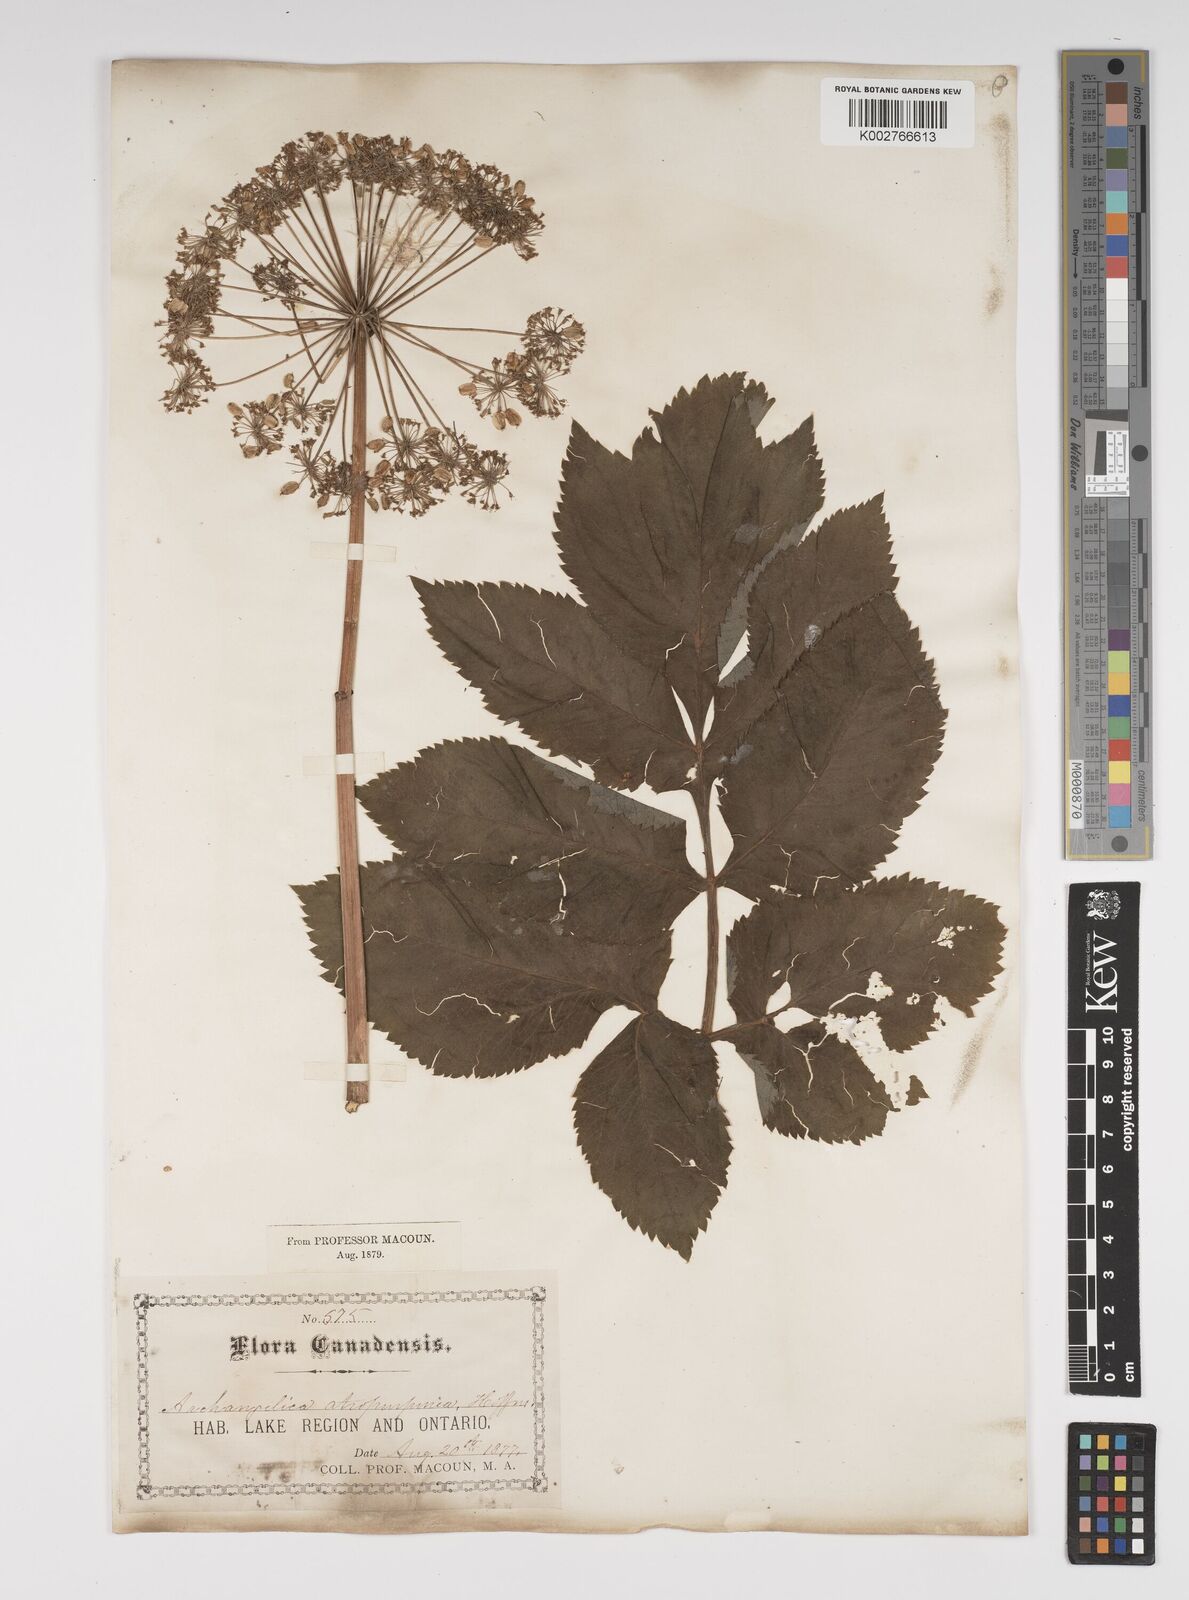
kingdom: Plantae
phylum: Tracheophyta
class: Magnoliopsida
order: Apiales
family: Apiaceae
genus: Angelica
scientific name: Angelica atropurpurea
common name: Great angelica
